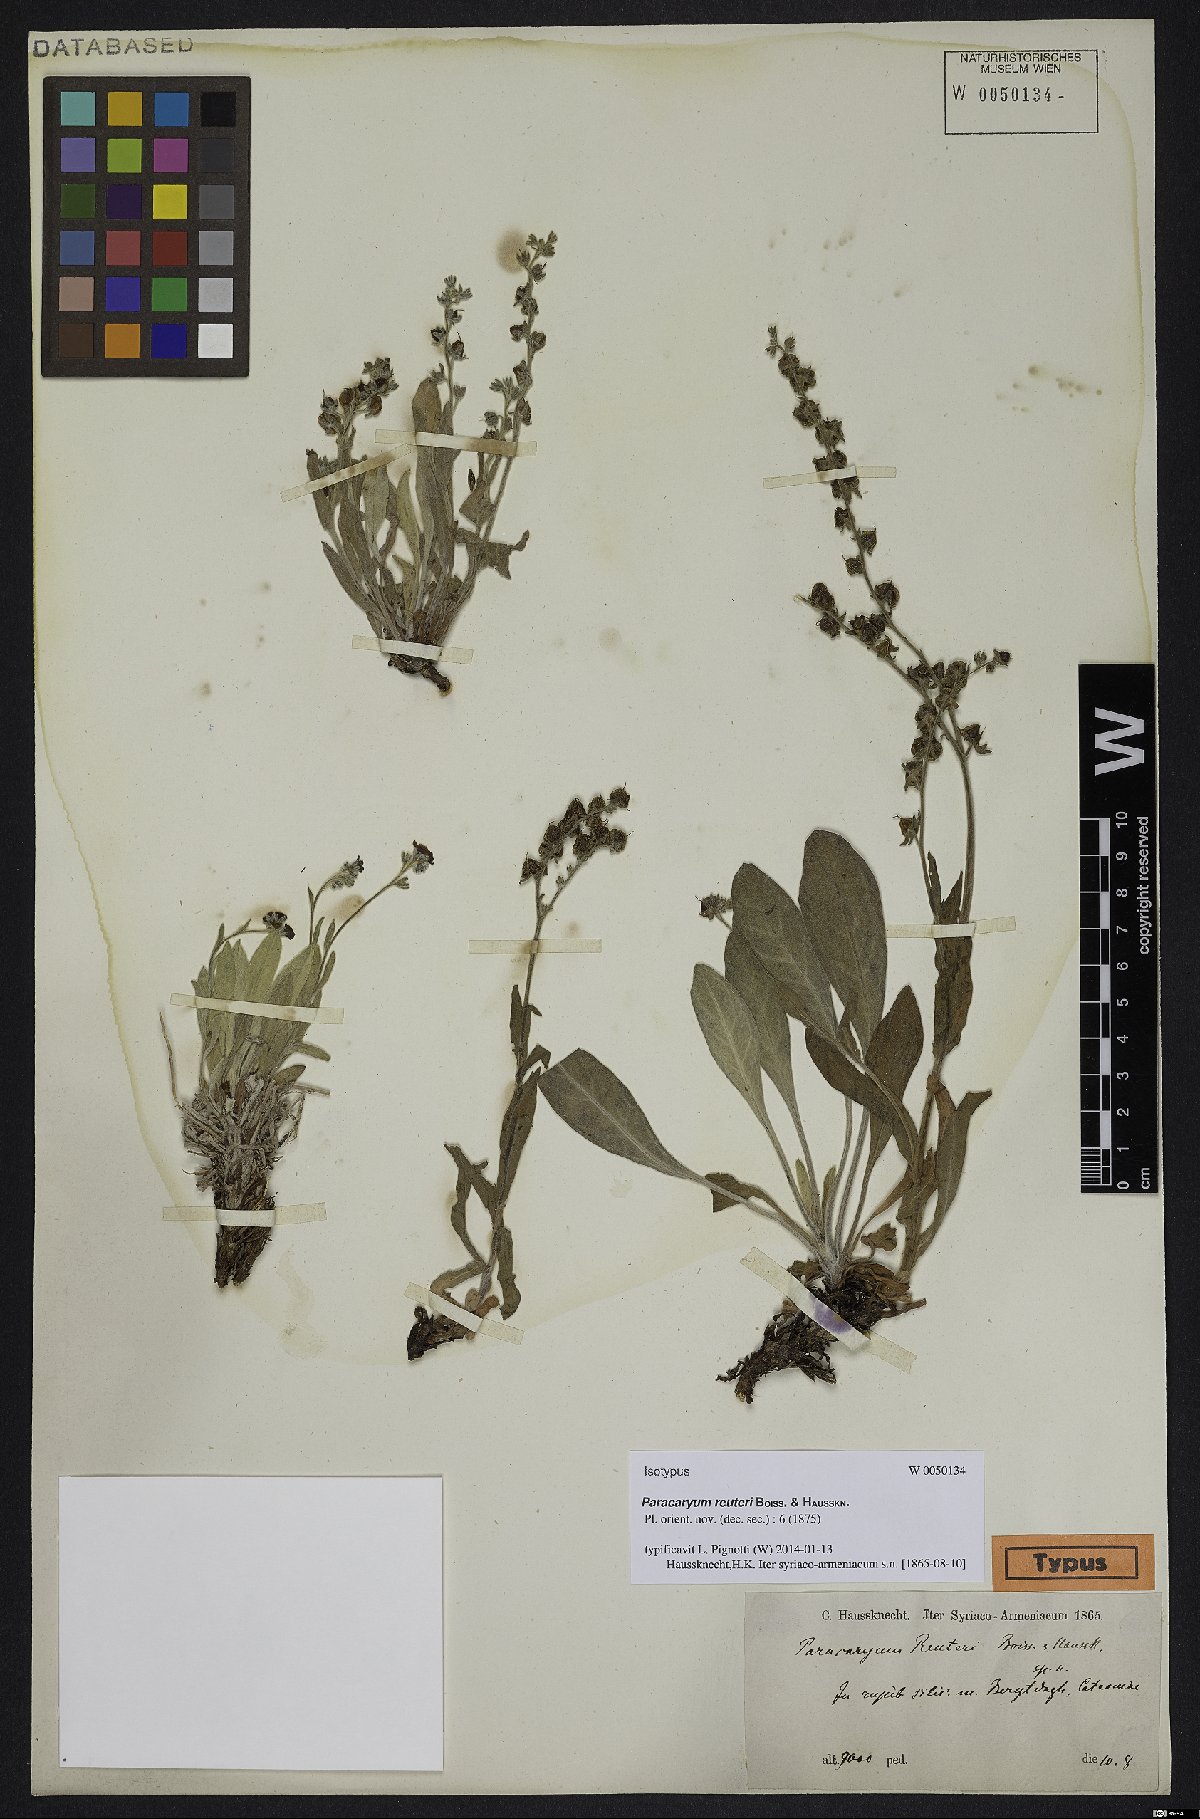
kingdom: Plantae
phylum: Tracheophyta
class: Magnoliopsida
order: Boraginales
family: Boraginaceae
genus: Paracaryum
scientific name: Paracaryum reuteri
